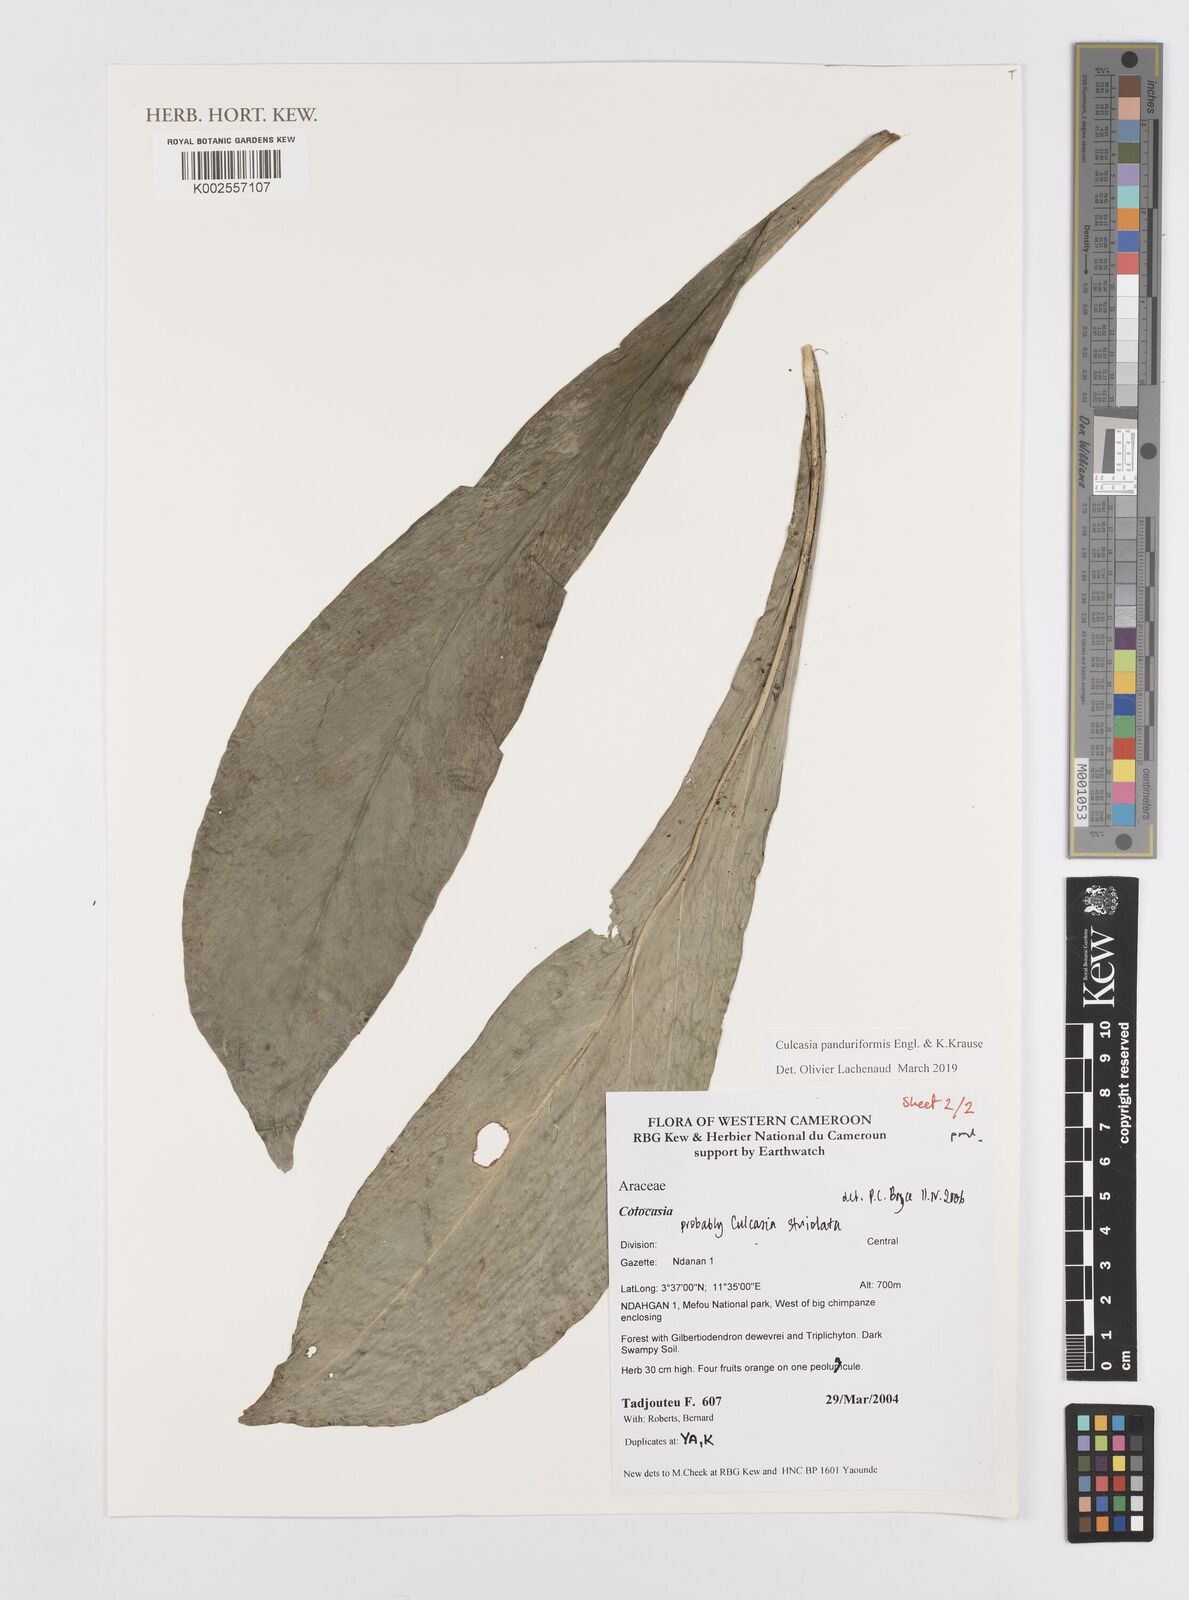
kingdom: Plantae
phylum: Tracheophyta
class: Liliopsida
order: Alismatales
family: Araceae
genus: Culcasia
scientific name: Culcasia panduriformis
